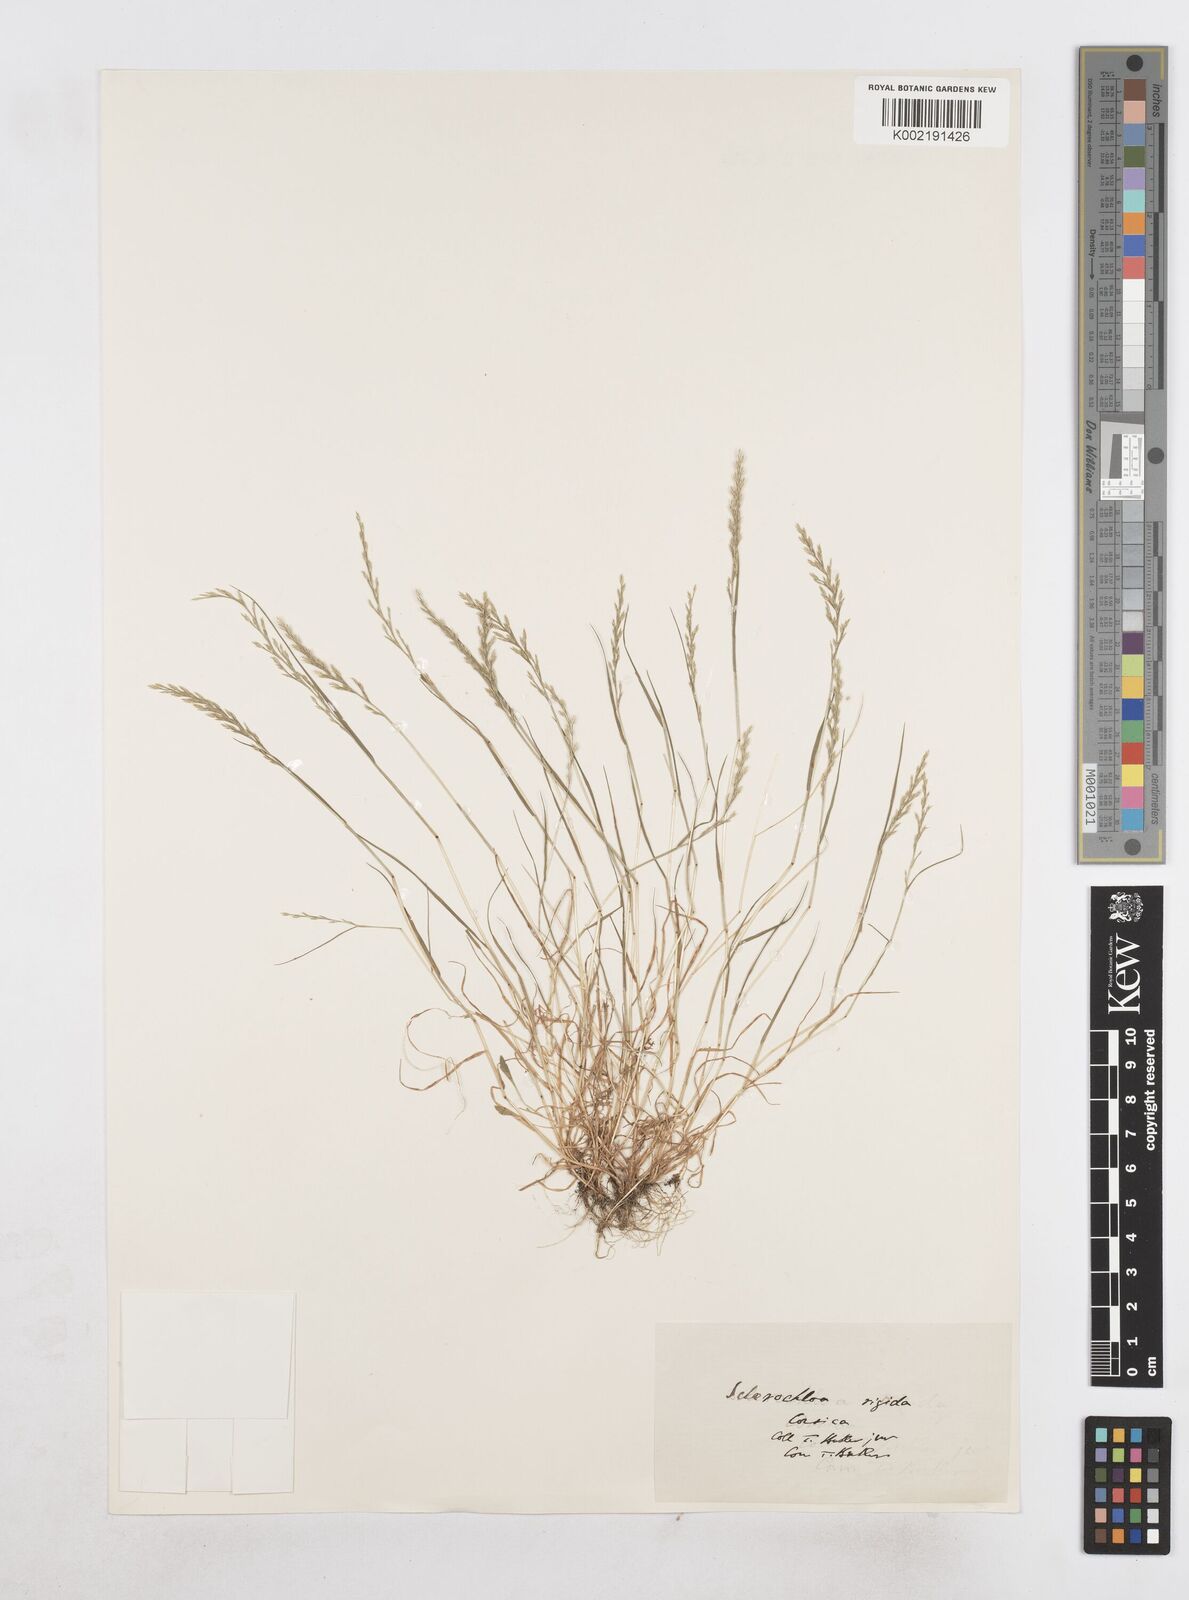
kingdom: Plantae
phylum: Tracheophyta
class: Liliopsida
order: Poales
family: Poaceae
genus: Catapodium
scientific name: Catapodium
